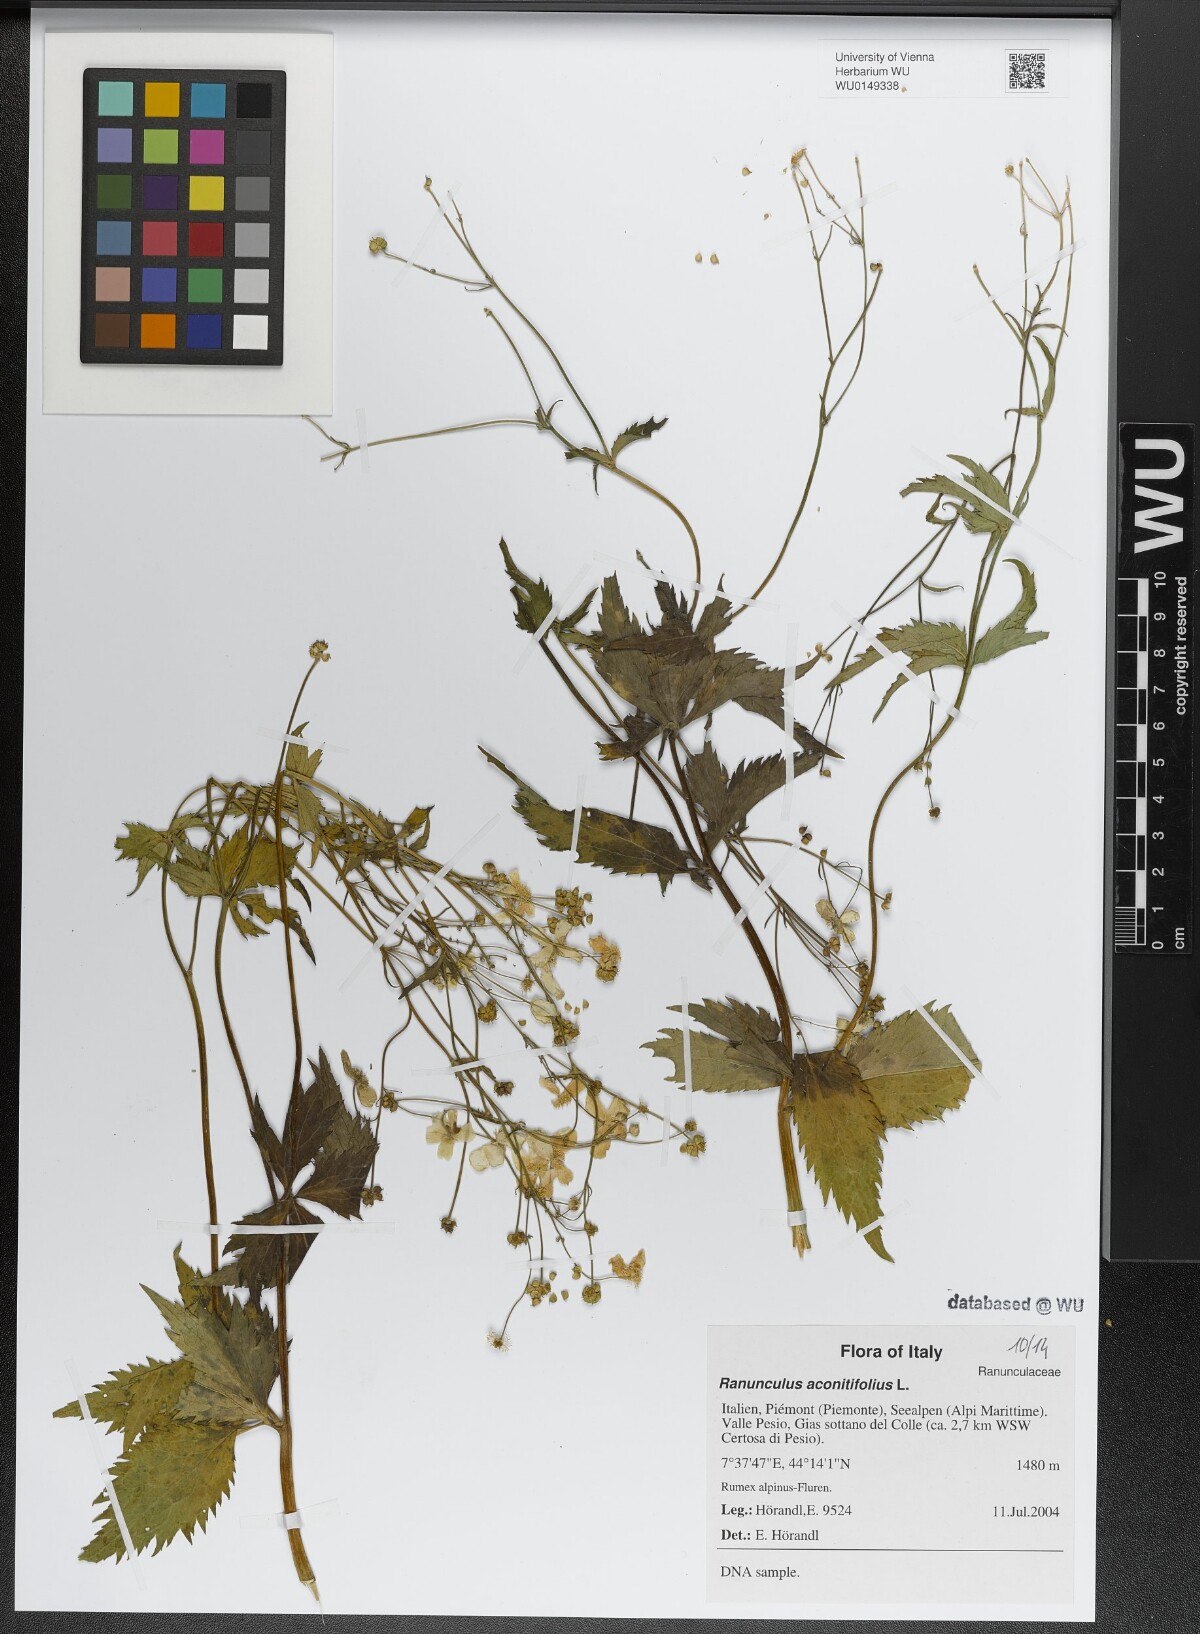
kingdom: Plantae
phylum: Tracheophyta
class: Magnoliopsida
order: Ranunculales
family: Ranunculaceae
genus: Ranunculus
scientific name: Ranunculus aconitifolius
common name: Aconite-leaved buttercup
